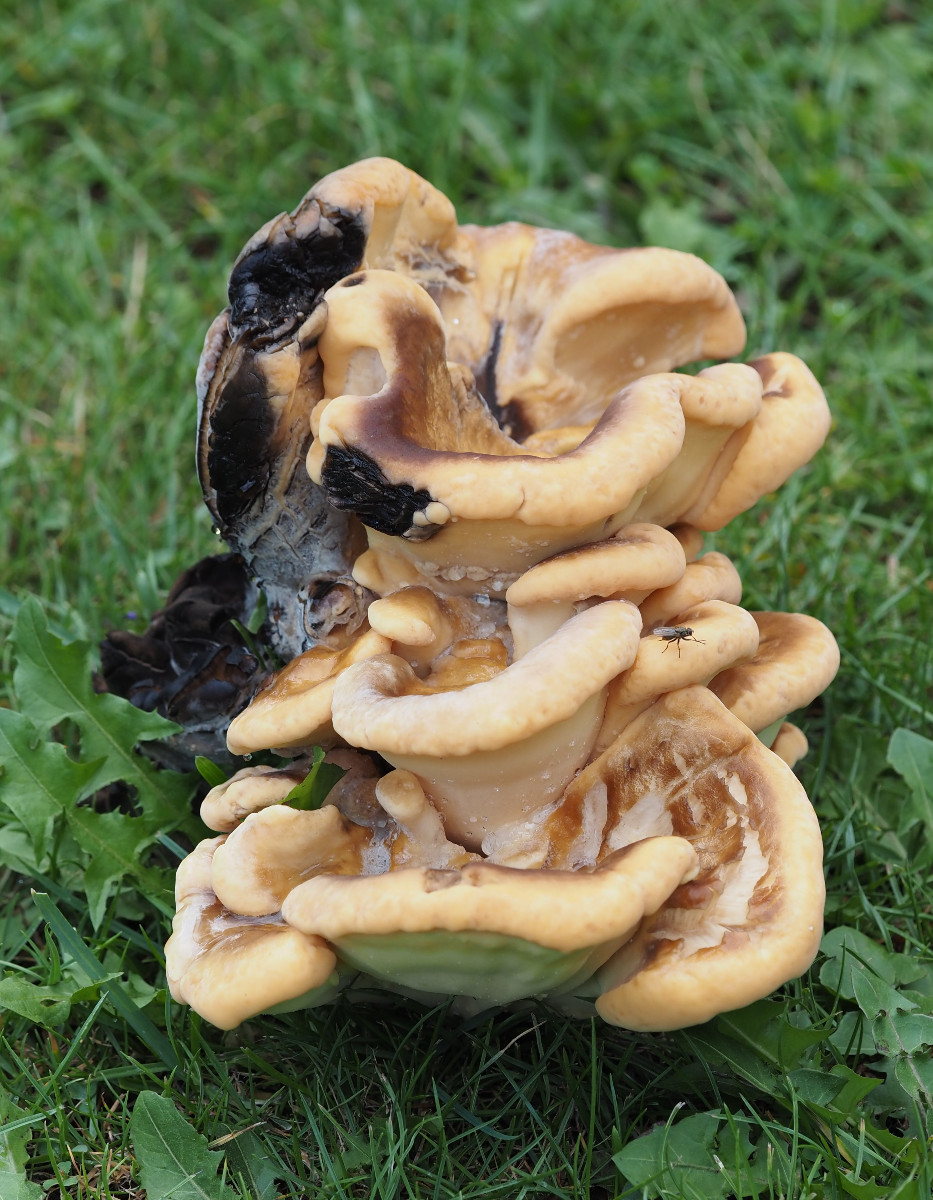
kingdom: Fungi
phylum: Basidiomycota
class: Agaricomycetes
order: Polyporales
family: Meripilaceae
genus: Meripilus
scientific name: Meripilus giganteus
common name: kæmpeporesvamp
